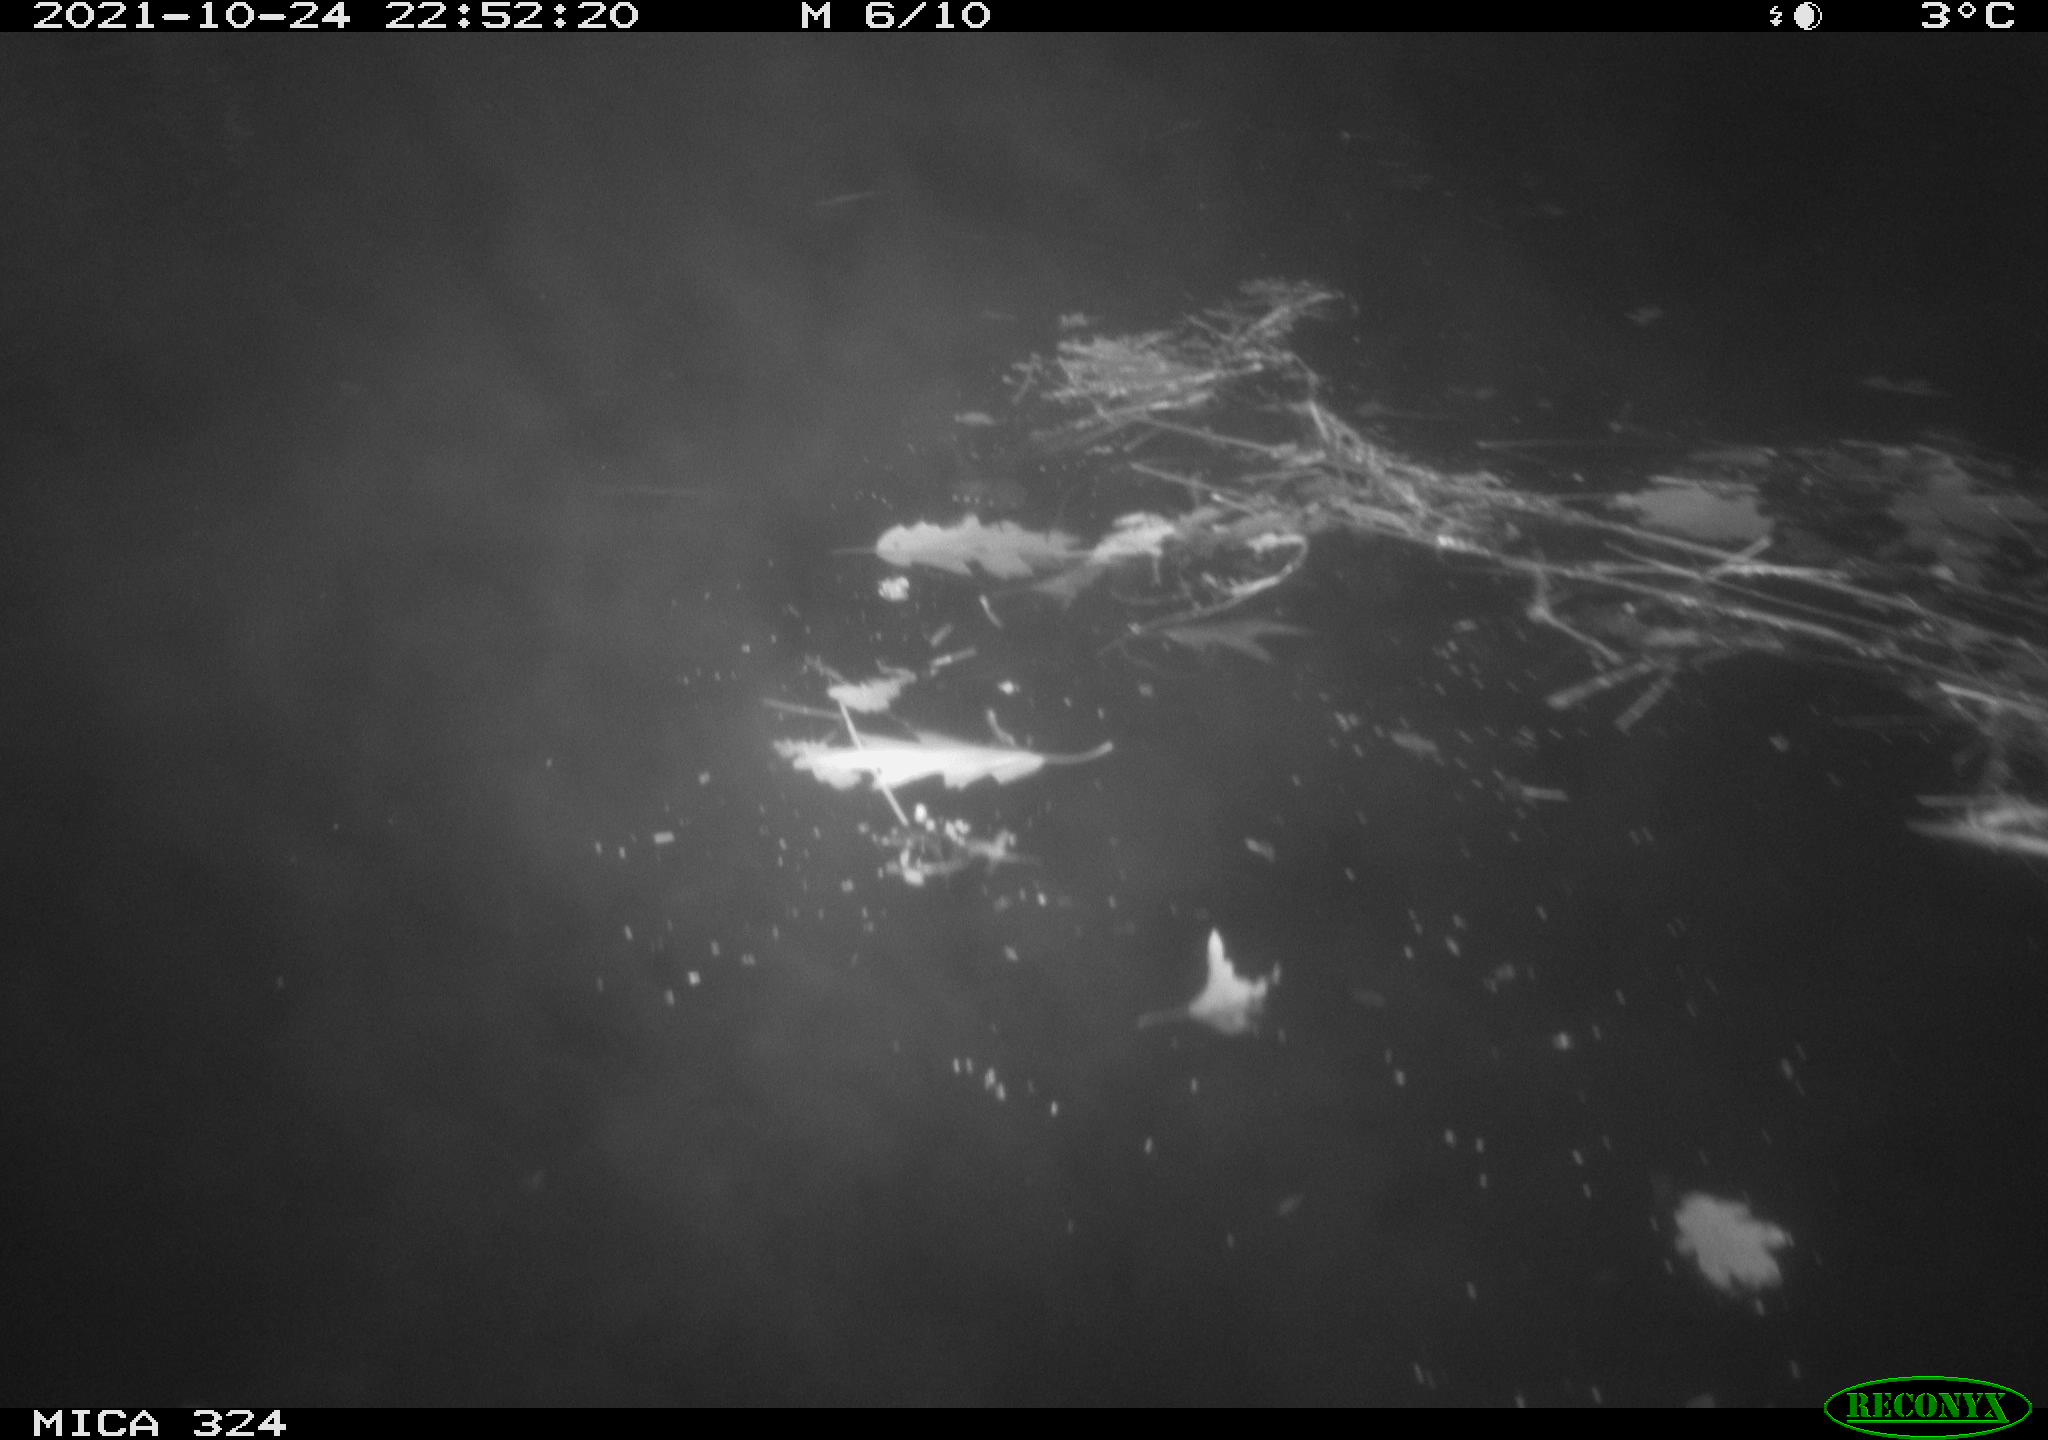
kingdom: Animalia
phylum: Chordata
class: Mammalia
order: Rodentia
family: Cricetidae
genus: Ondatra
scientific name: Ondatra zibethicus
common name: Muskrat
